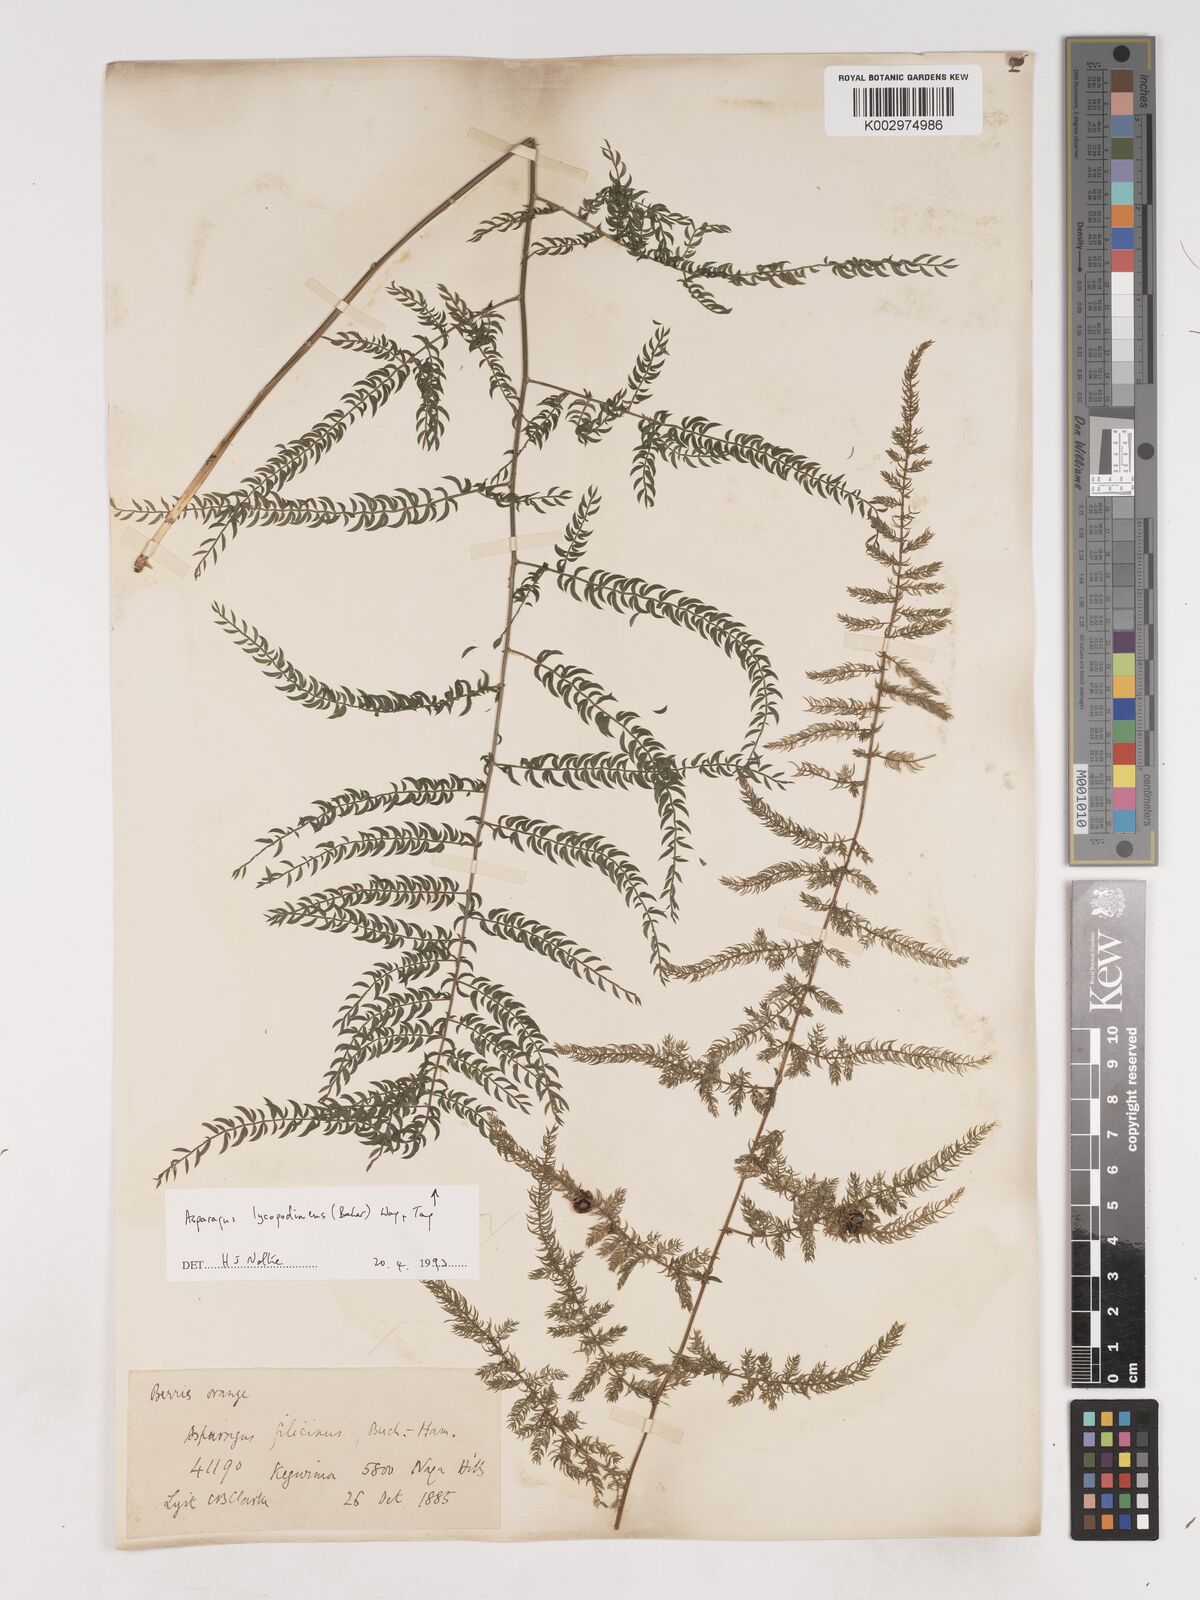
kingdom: Plantae
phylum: Tracheophyta
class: Liliopsida
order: Asparagales
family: Asparagaceae
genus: Asparagus
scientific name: Asparagus filicinus
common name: Fern asparagus
